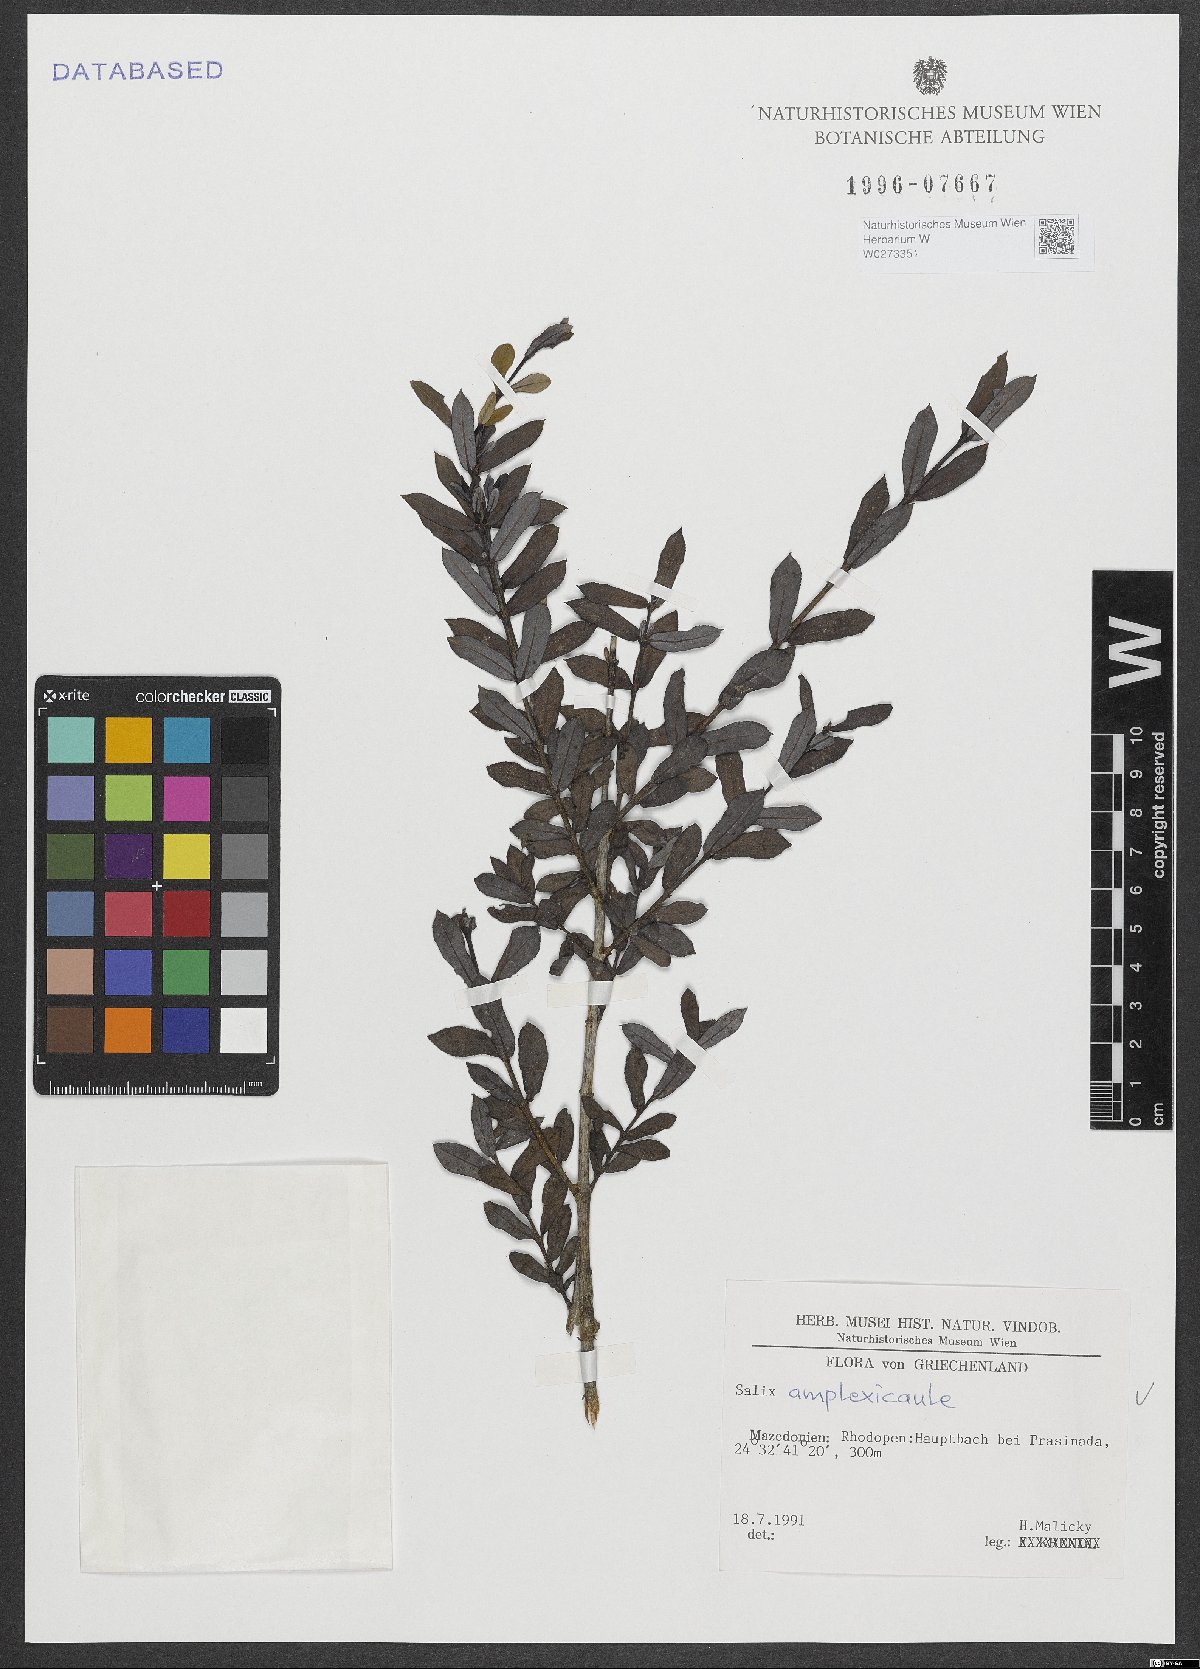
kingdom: Plantae
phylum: Tracheophyta
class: Magnoliopsida
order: Malpighiales
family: Salicaceae
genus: Salix
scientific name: Salix amplexicaulis
